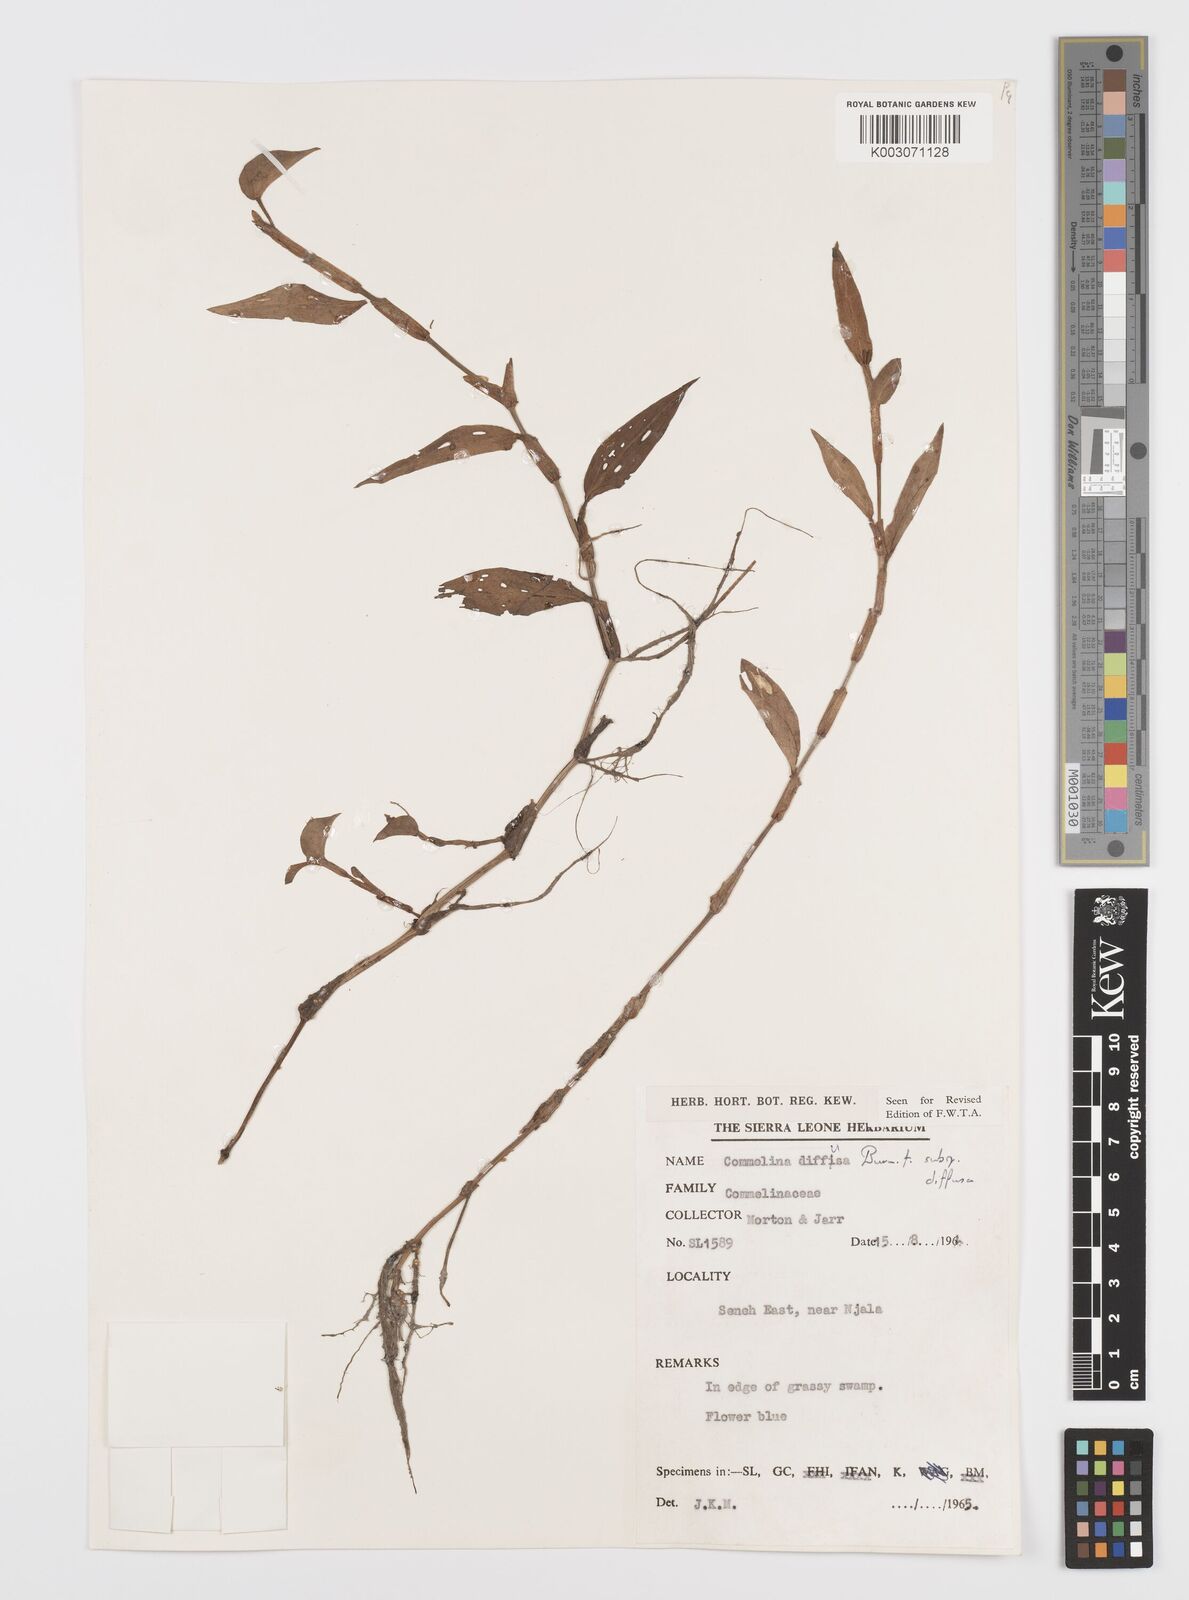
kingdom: Plantae
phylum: Tracheophyta
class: Liliopsida
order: Commelinales
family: Commelinaceae
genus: Commelina
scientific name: Commelina diffusa
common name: Climbing dayflower
